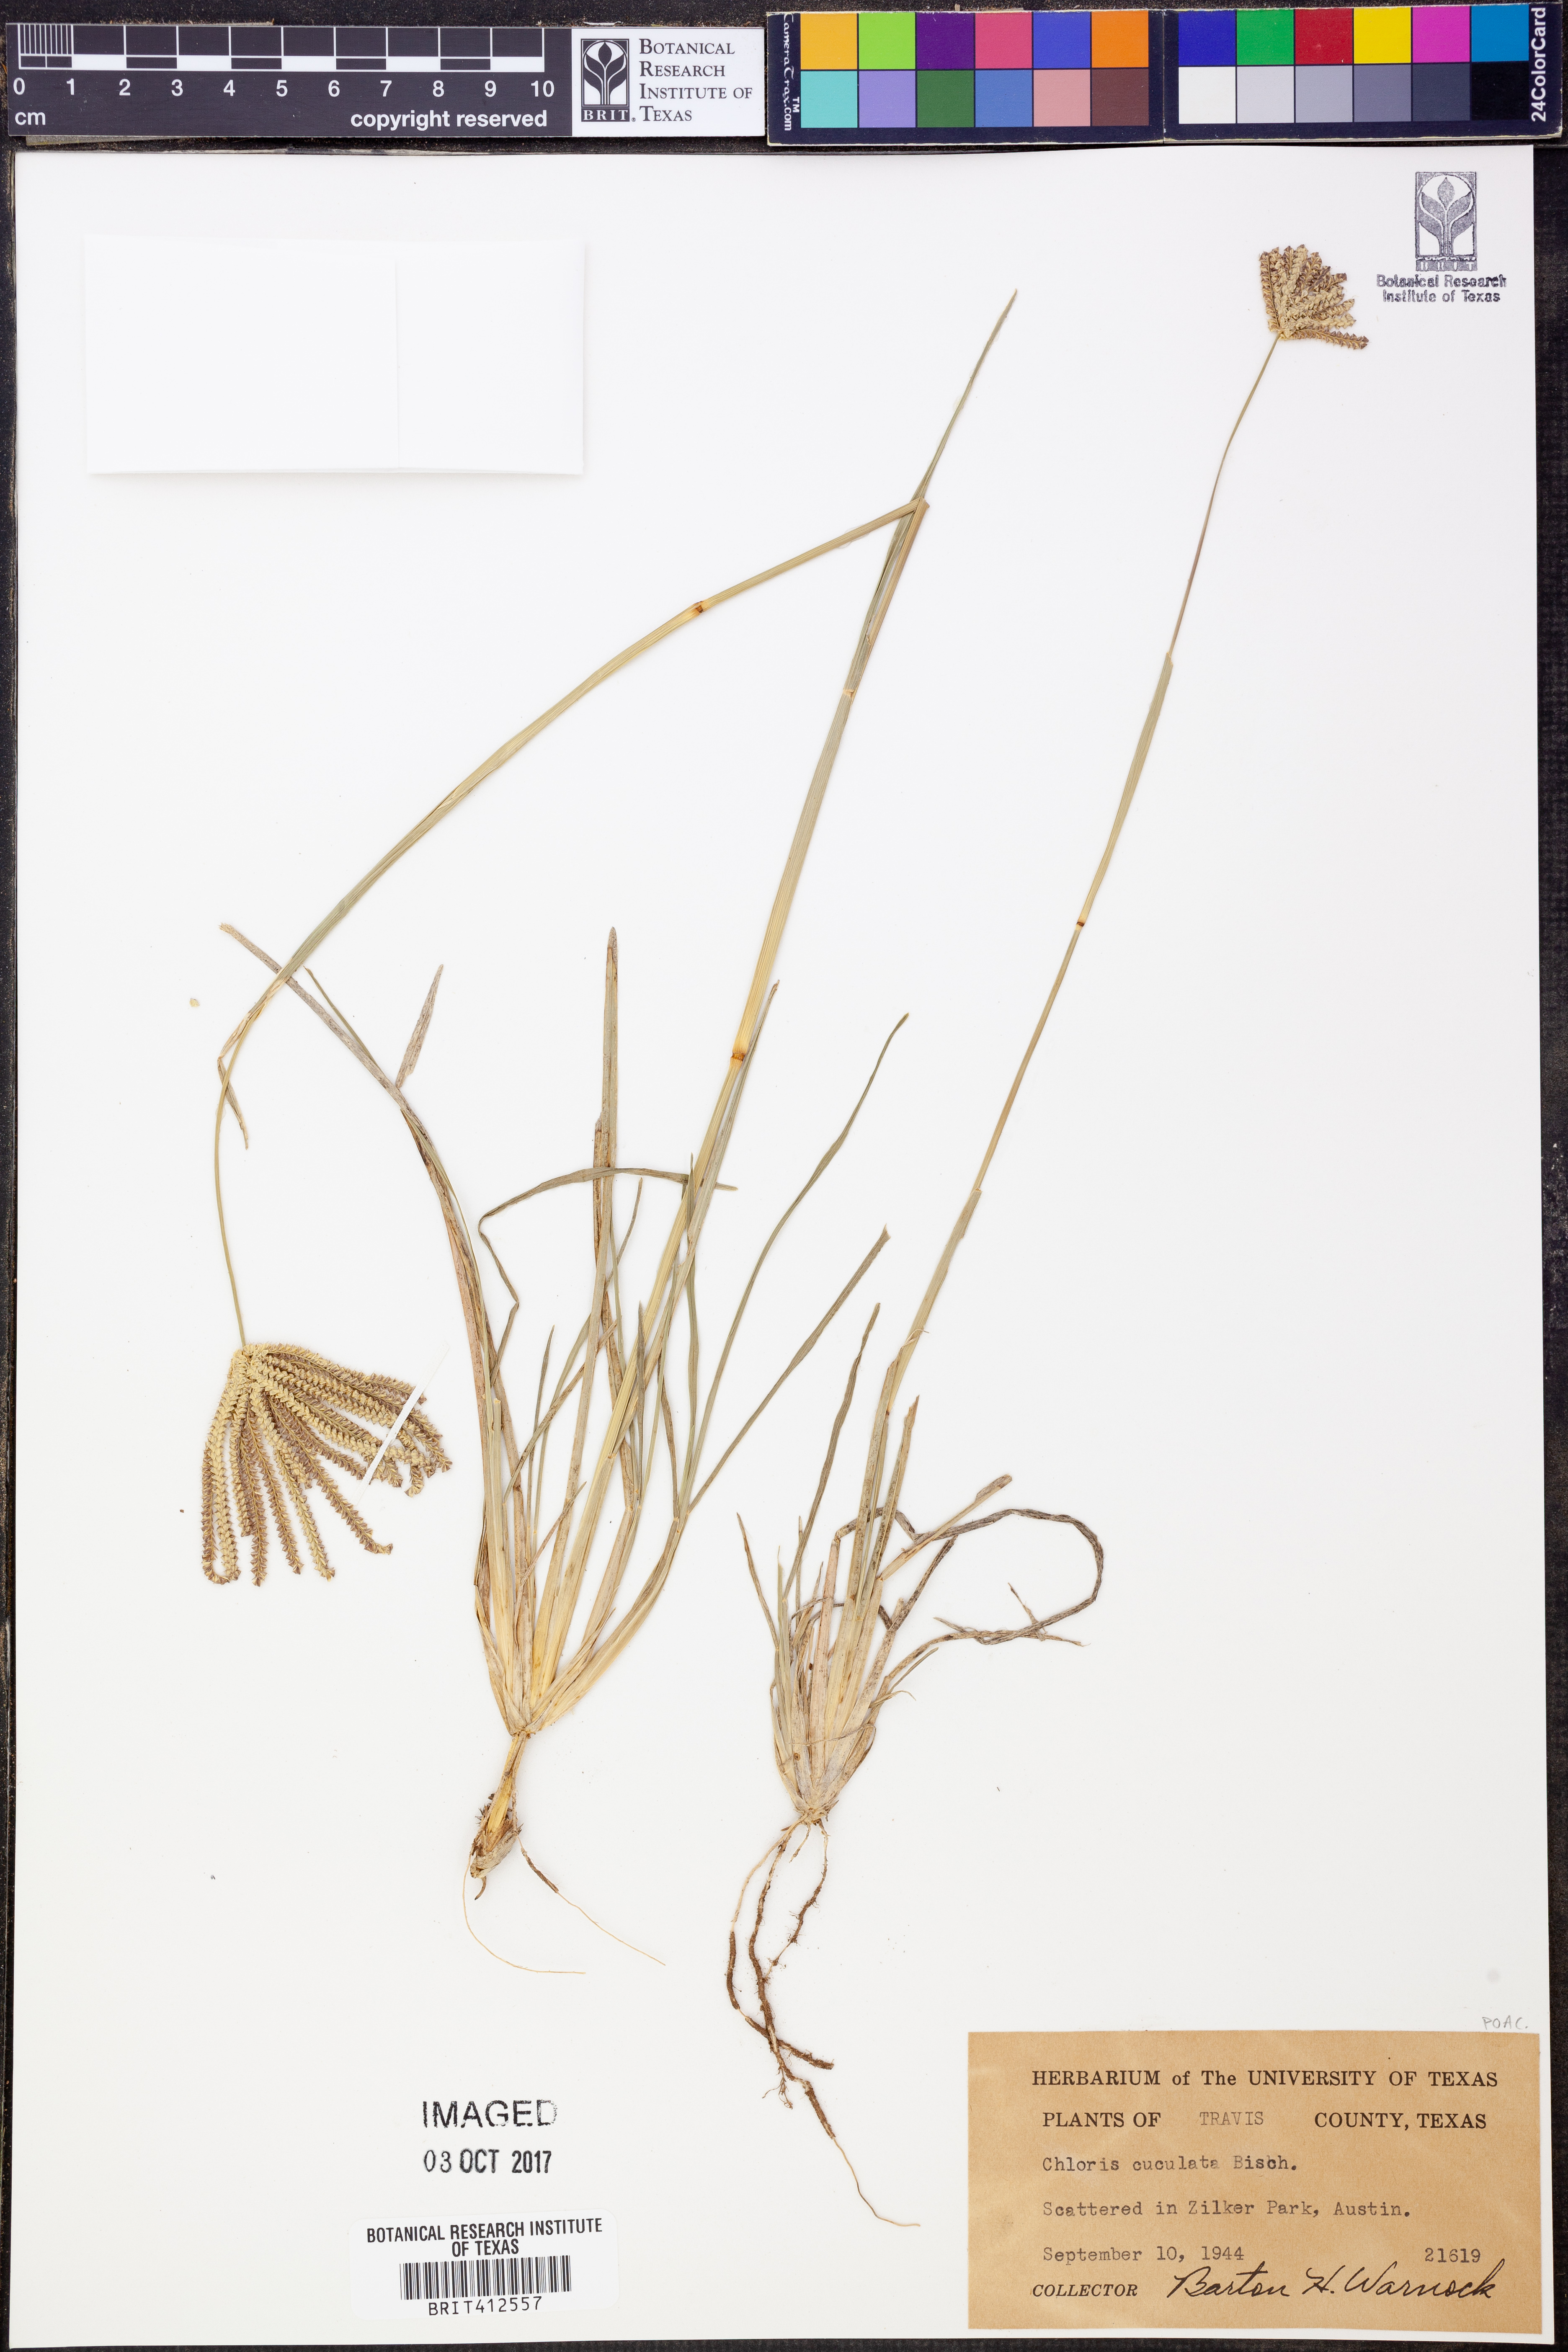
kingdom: Plantae
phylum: Tracheophyta
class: Liliopsida
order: Poales
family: Poaceae
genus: Chloris
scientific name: Chloris cucullata
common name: Hooded windmill grass
